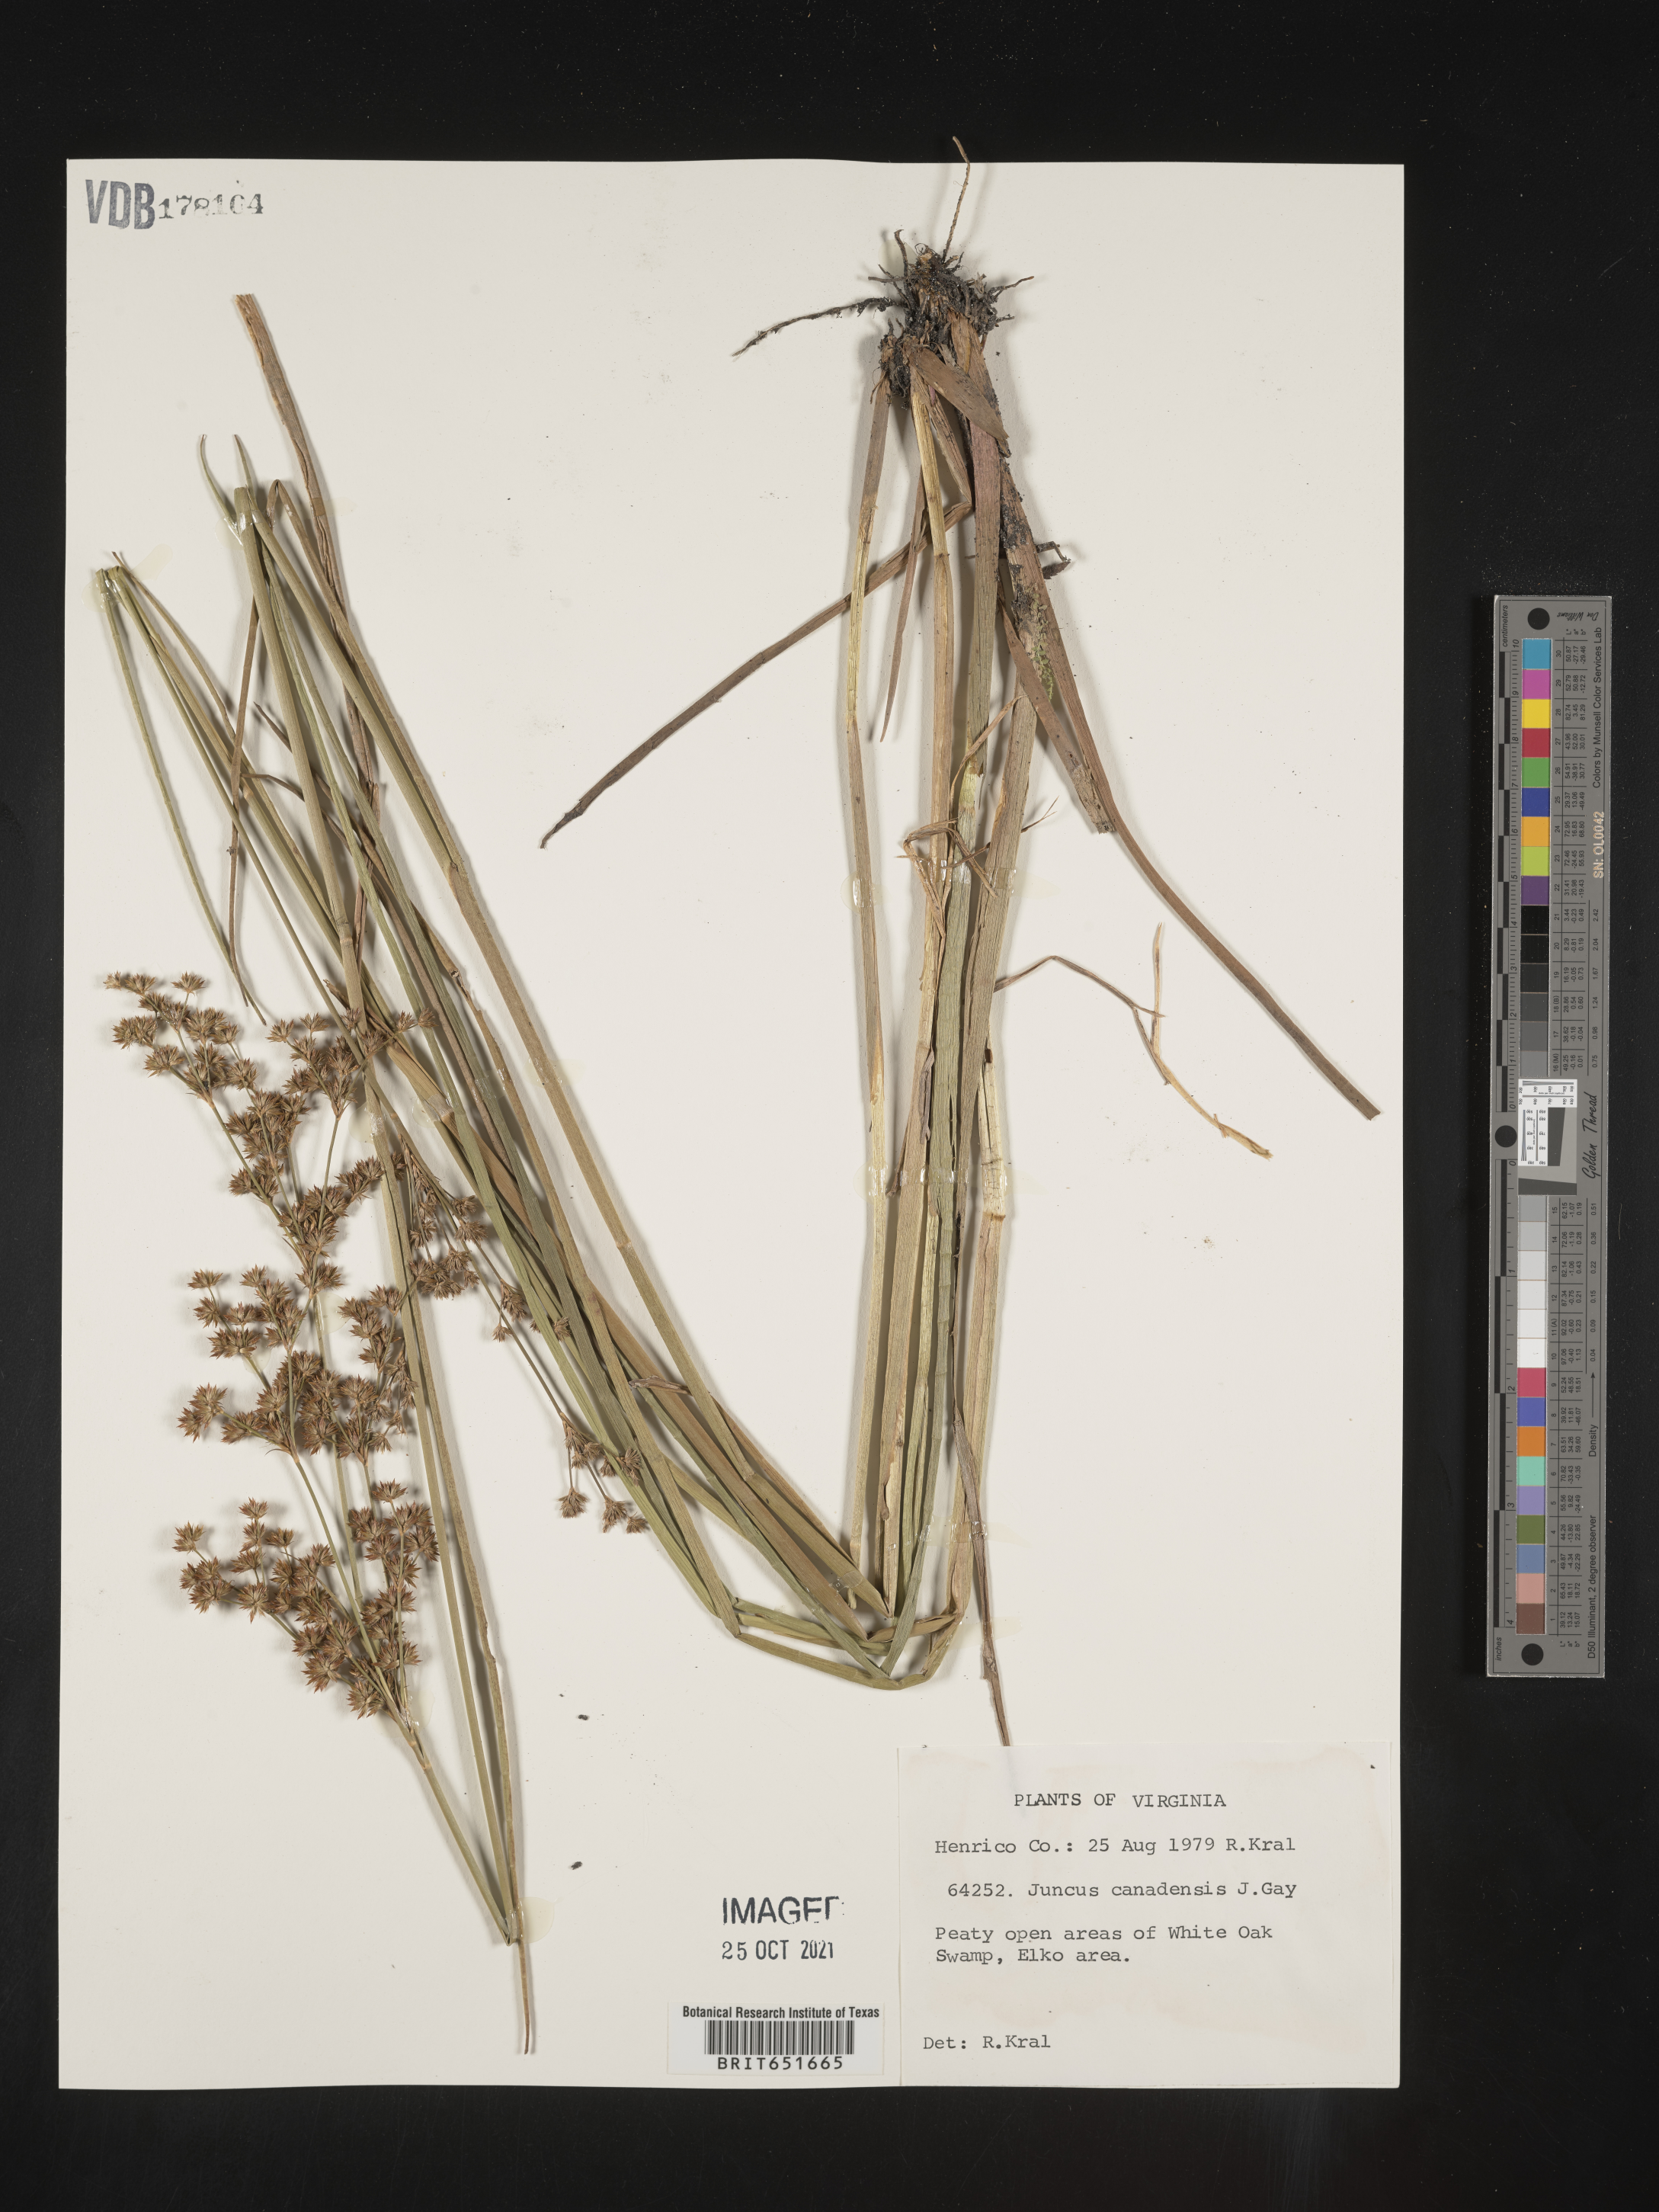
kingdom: Plantae
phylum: Tracheophyta
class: Liliopsida
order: Poales
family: Juncaceae
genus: Juncus
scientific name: Juncus canadensis
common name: Canada rush
